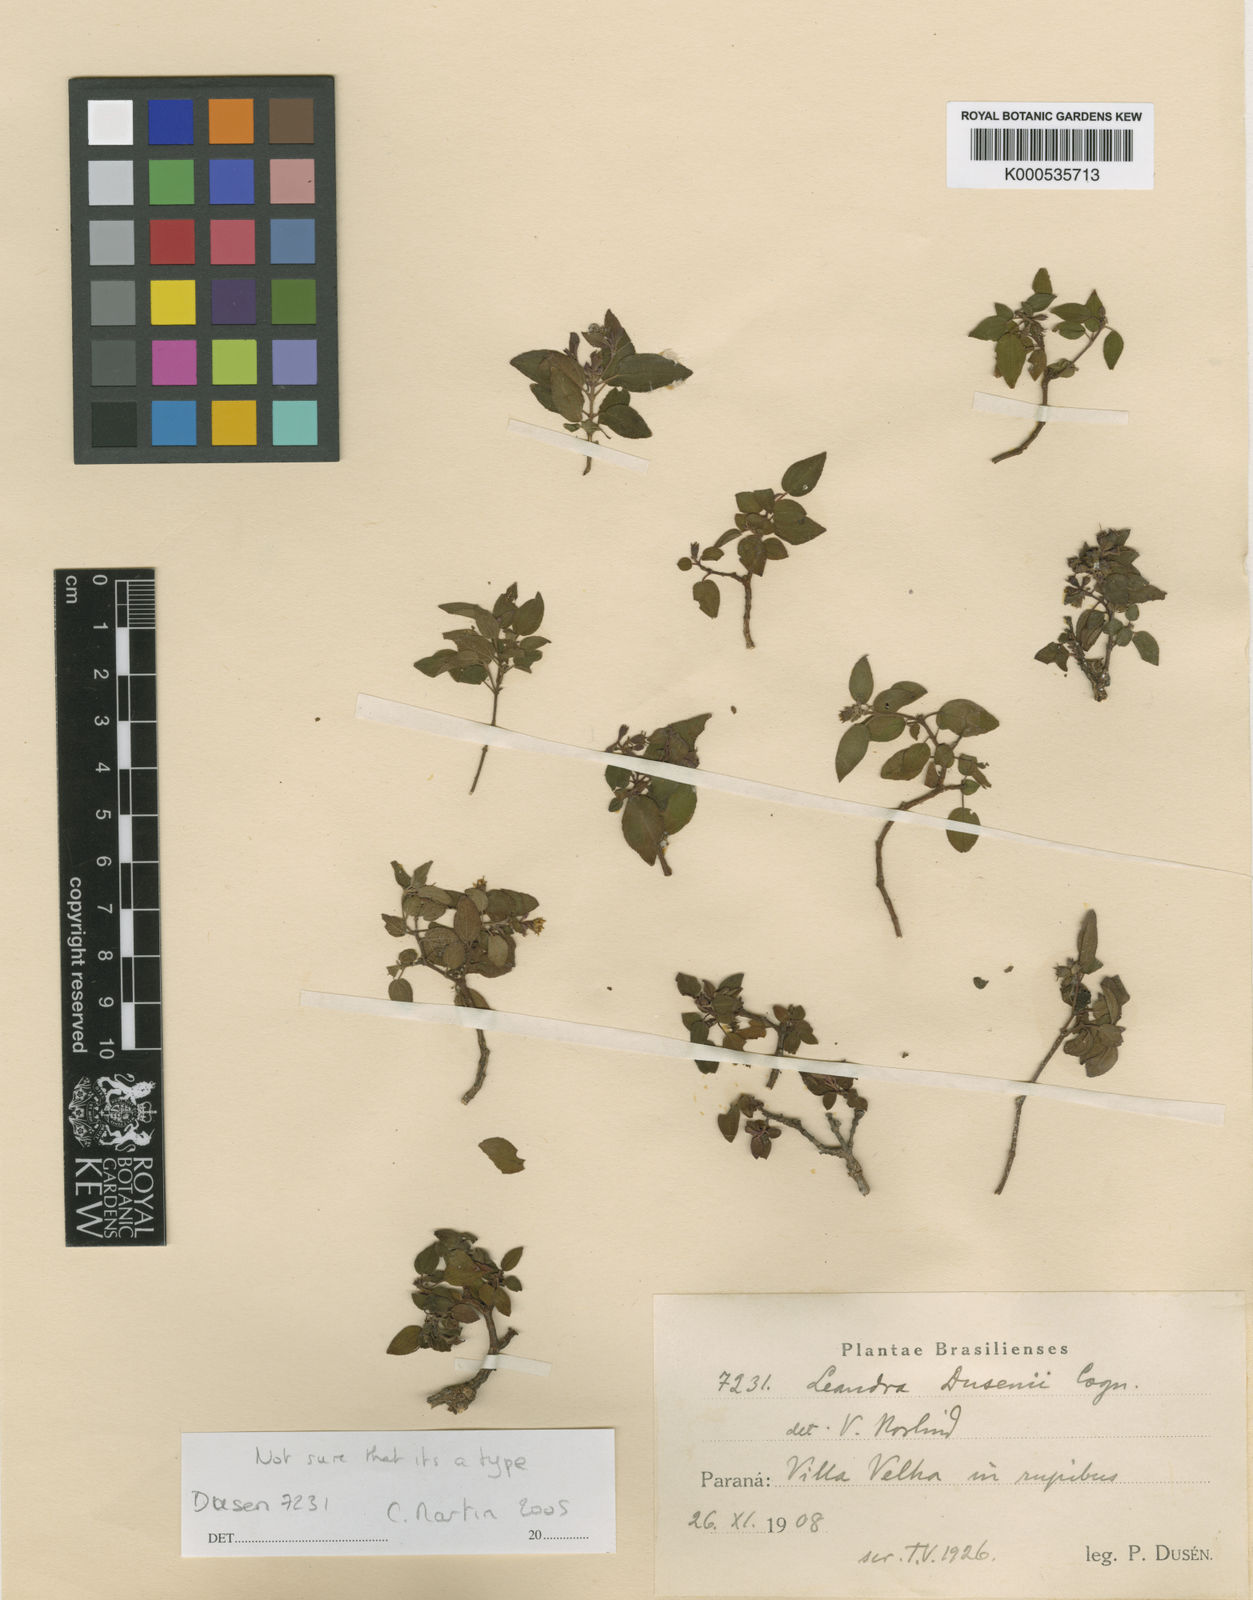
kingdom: Plantae
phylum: Tracheophyta
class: Magnoliopsida
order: Myrtales
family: Melastomataceae
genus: Miconia
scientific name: Miconia dusenii
